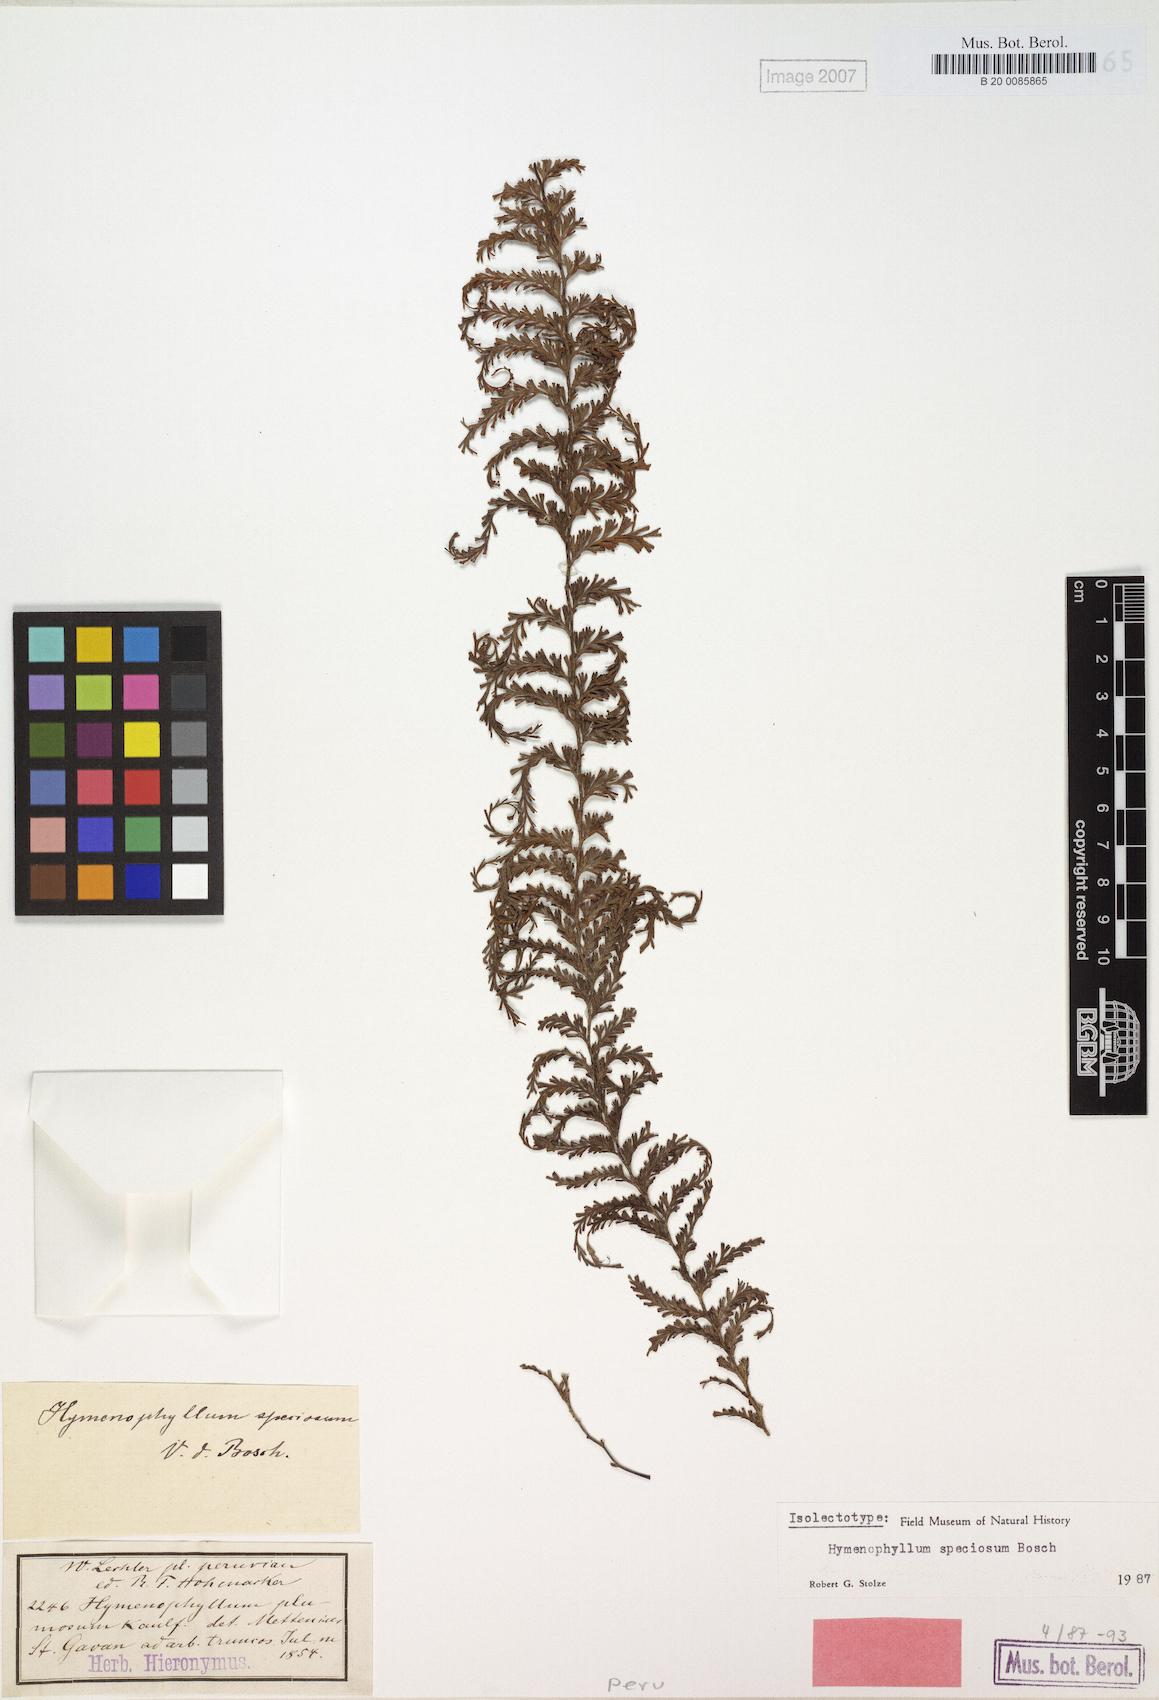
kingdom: Plantae
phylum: Tracheophyta
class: Polypodiopsida
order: Hymenophyllales
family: Hymenophyllaceae
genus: Hymenophyllum
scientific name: Hymenophyllum sericeum
